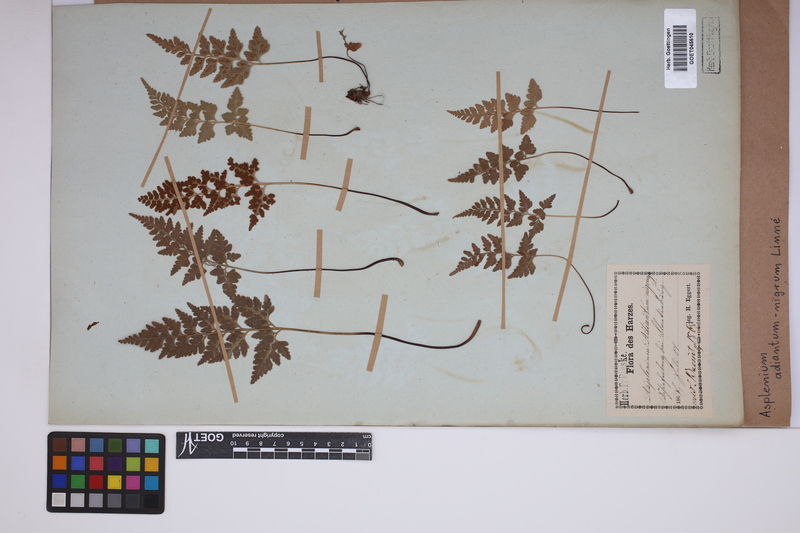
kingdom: Plantae
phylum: Tracheophyta
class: Polypodiopsida
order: Polypodiales
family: Aspleniaceae
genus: Asplenium
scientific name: Asplenium adiantum-nigrum
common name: Black spleenwort
